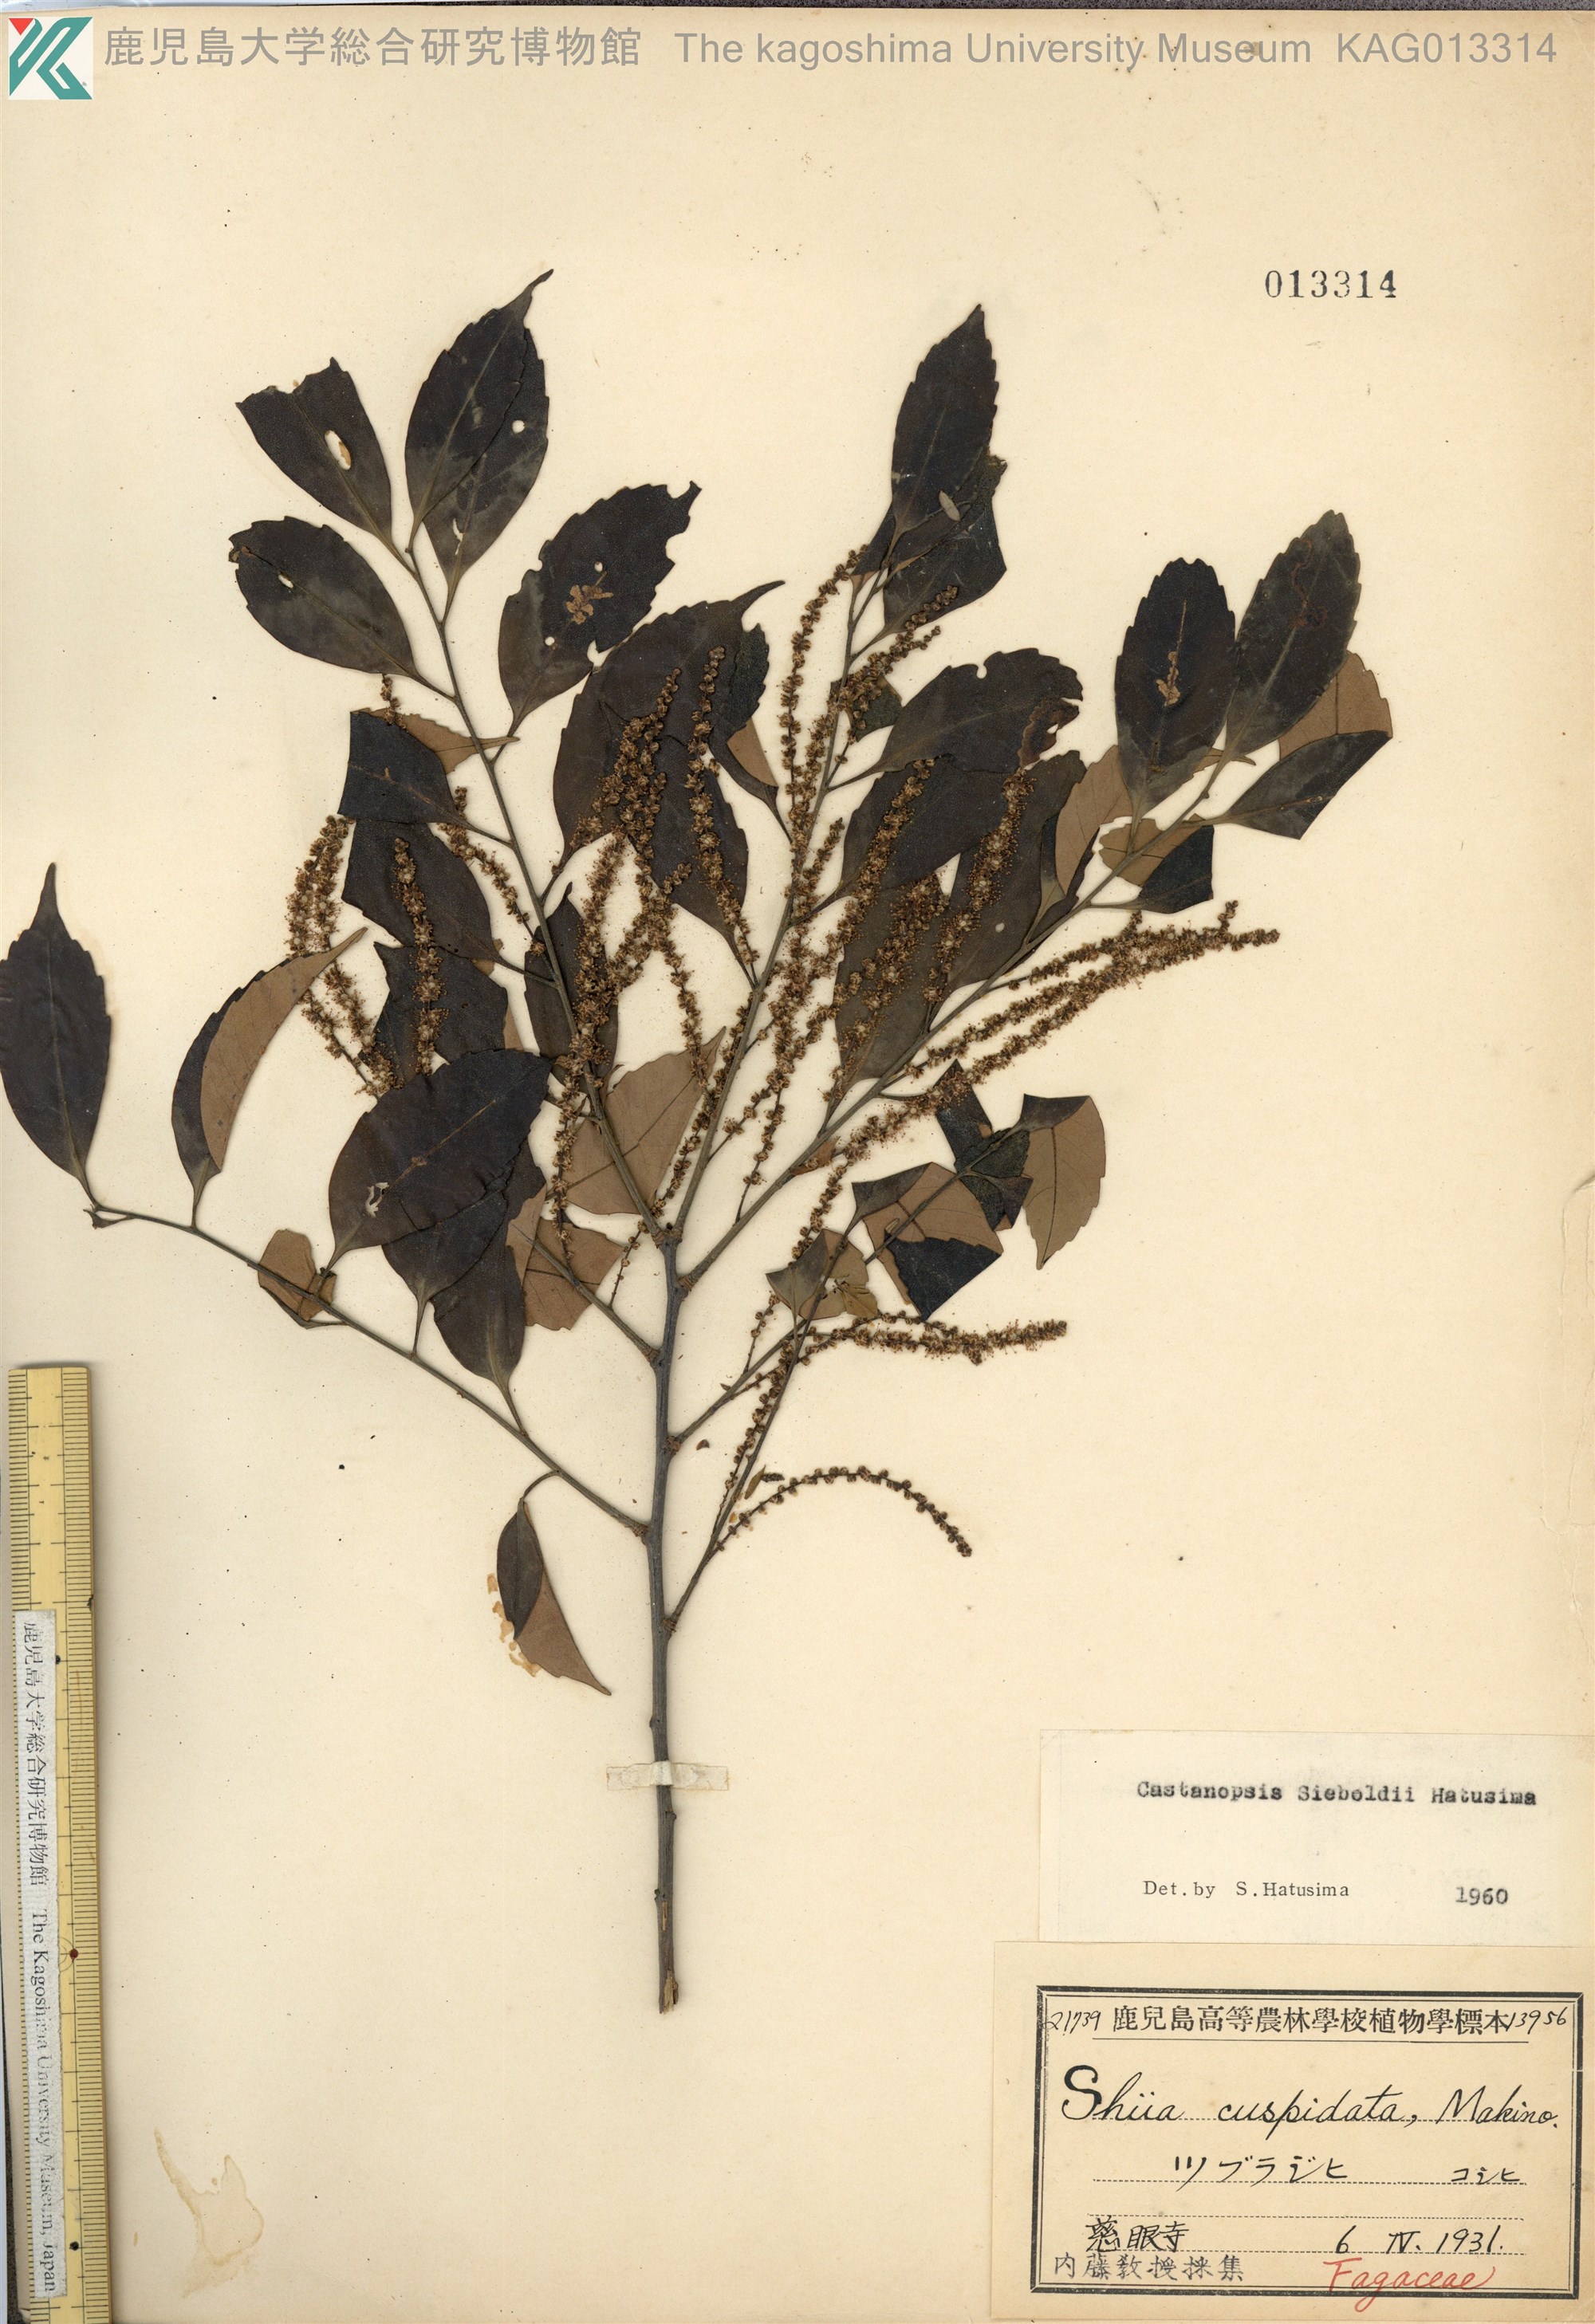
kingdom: Plantae
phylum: Tracheophyta
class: Magnoliopsida
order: Fagales
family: Fagaceae
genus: Castanopsis
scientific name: Castanopsis cuspidata
